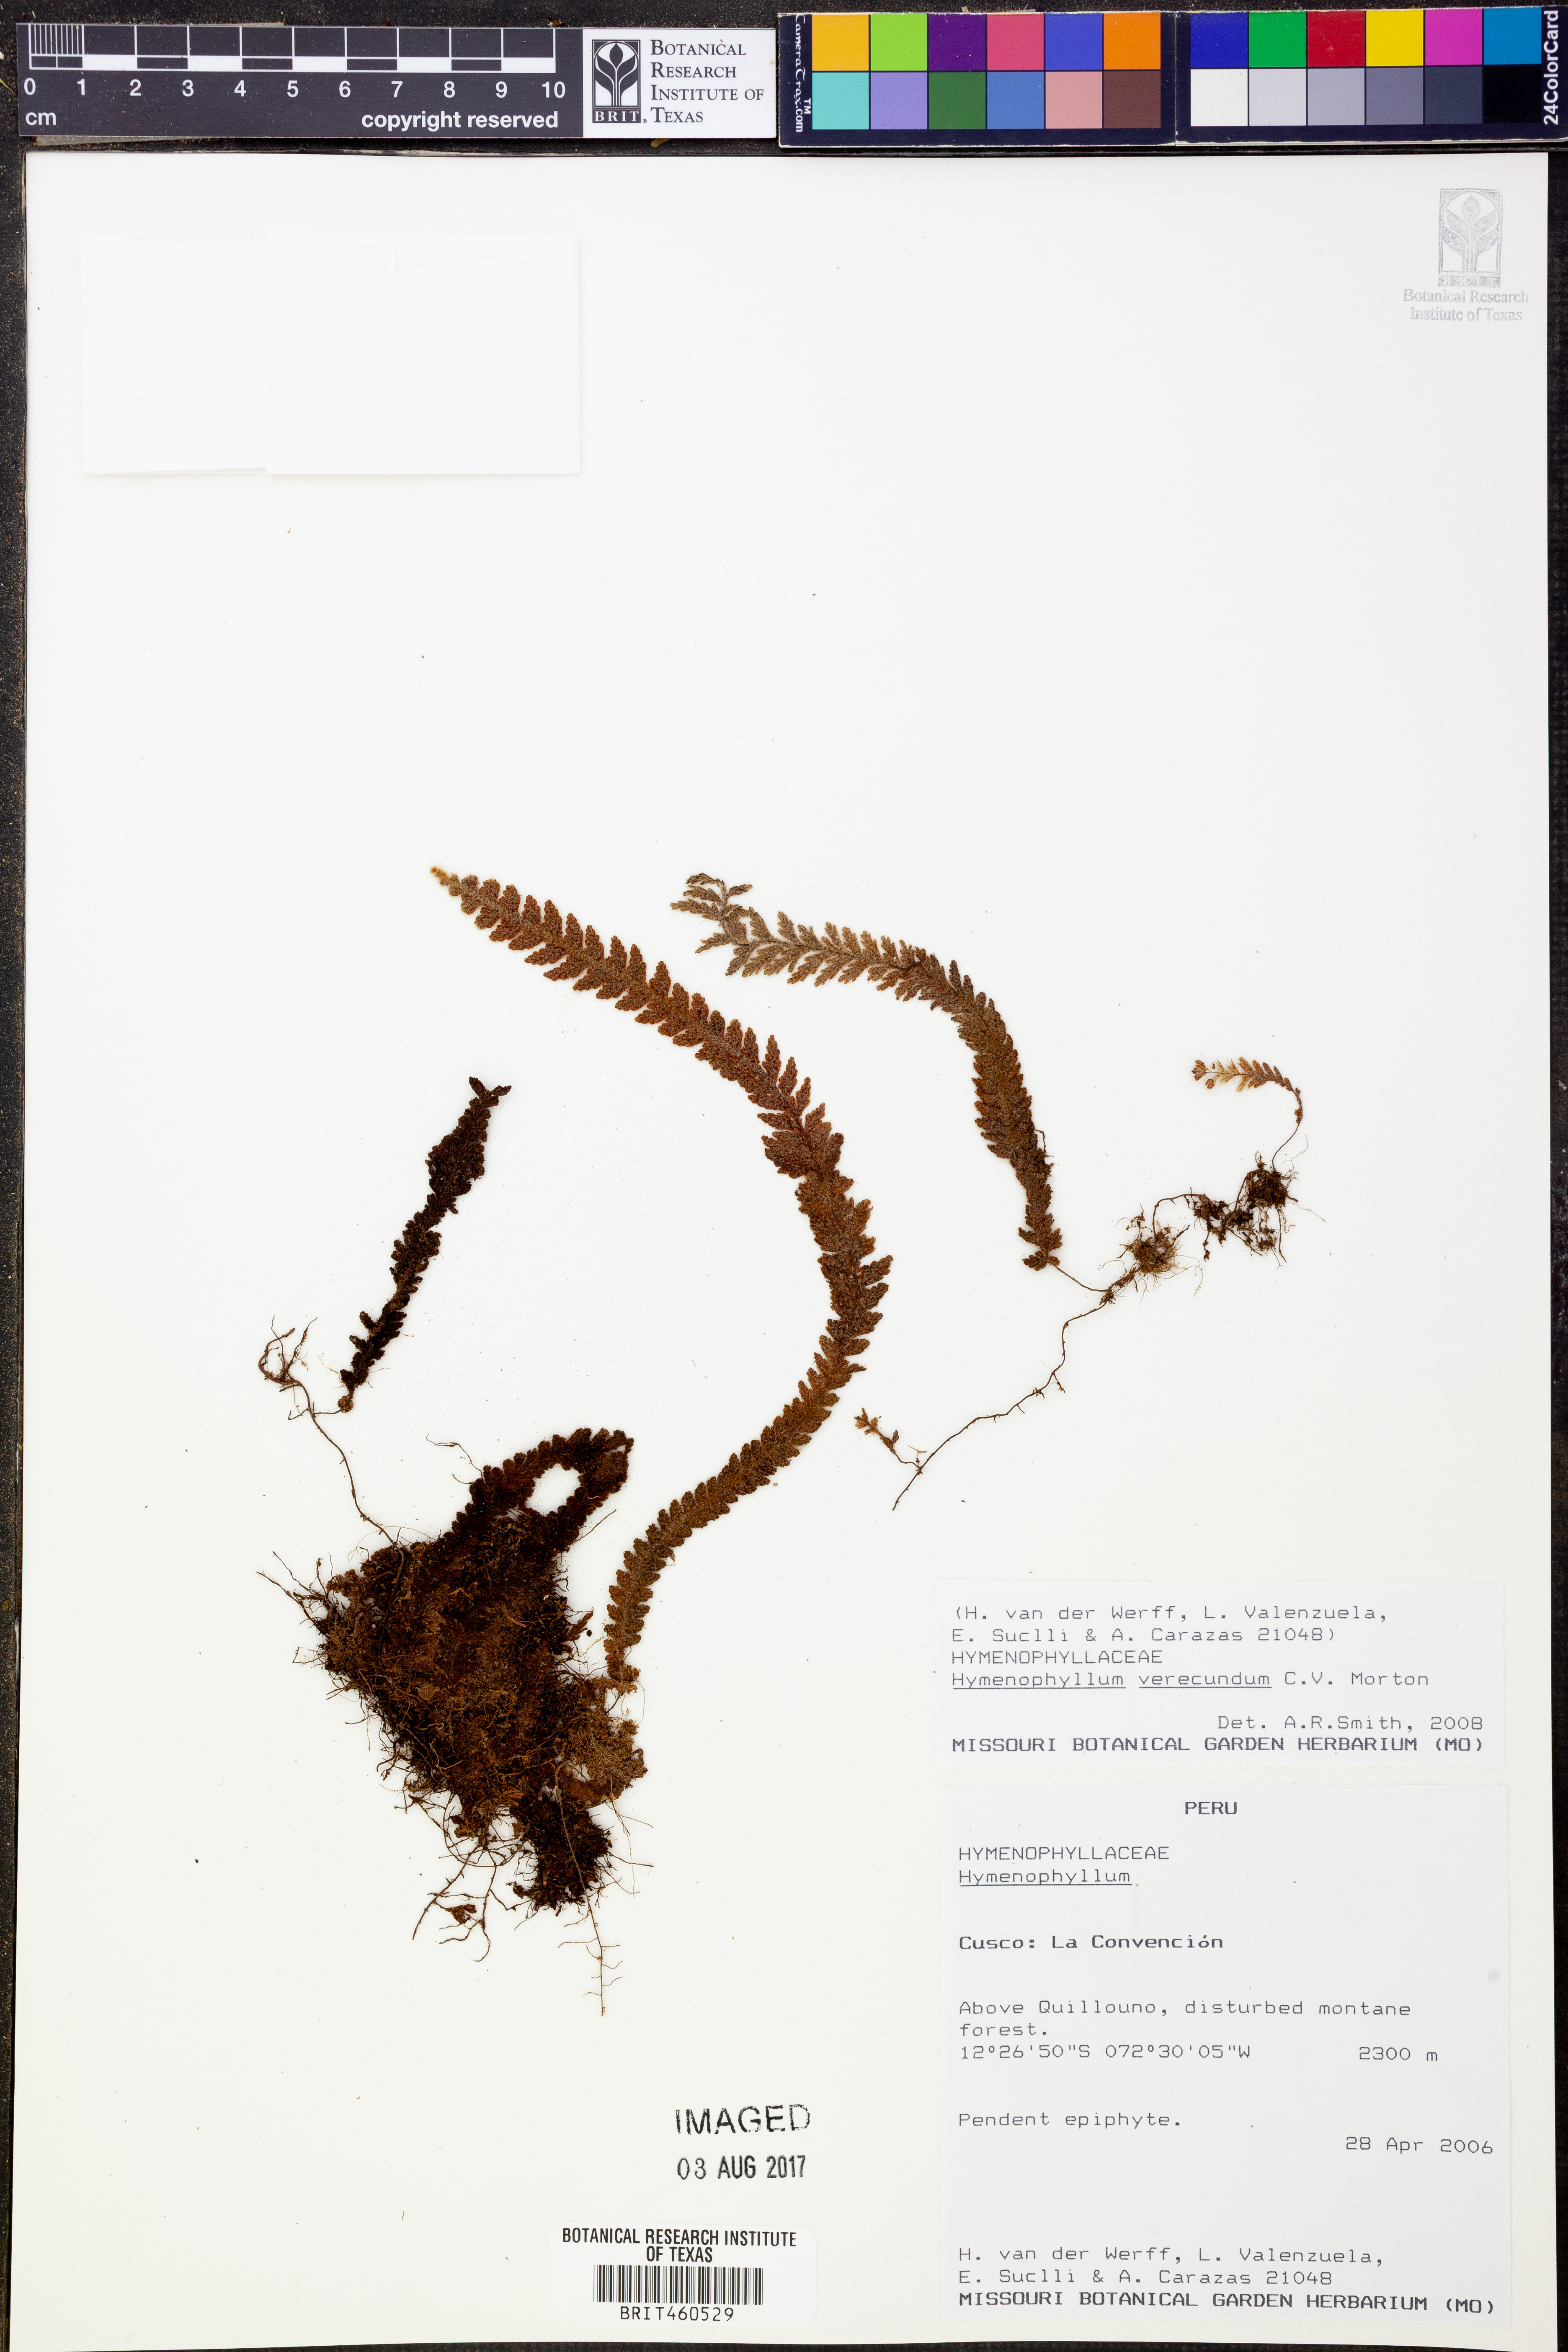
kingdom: Plantae
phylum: Tracheophyta
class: Polypodiopsida
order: Hymenophyllales
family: Hymenophyllaceae
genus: Hymenophyllum
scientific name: Hymenophyllum verecundum
